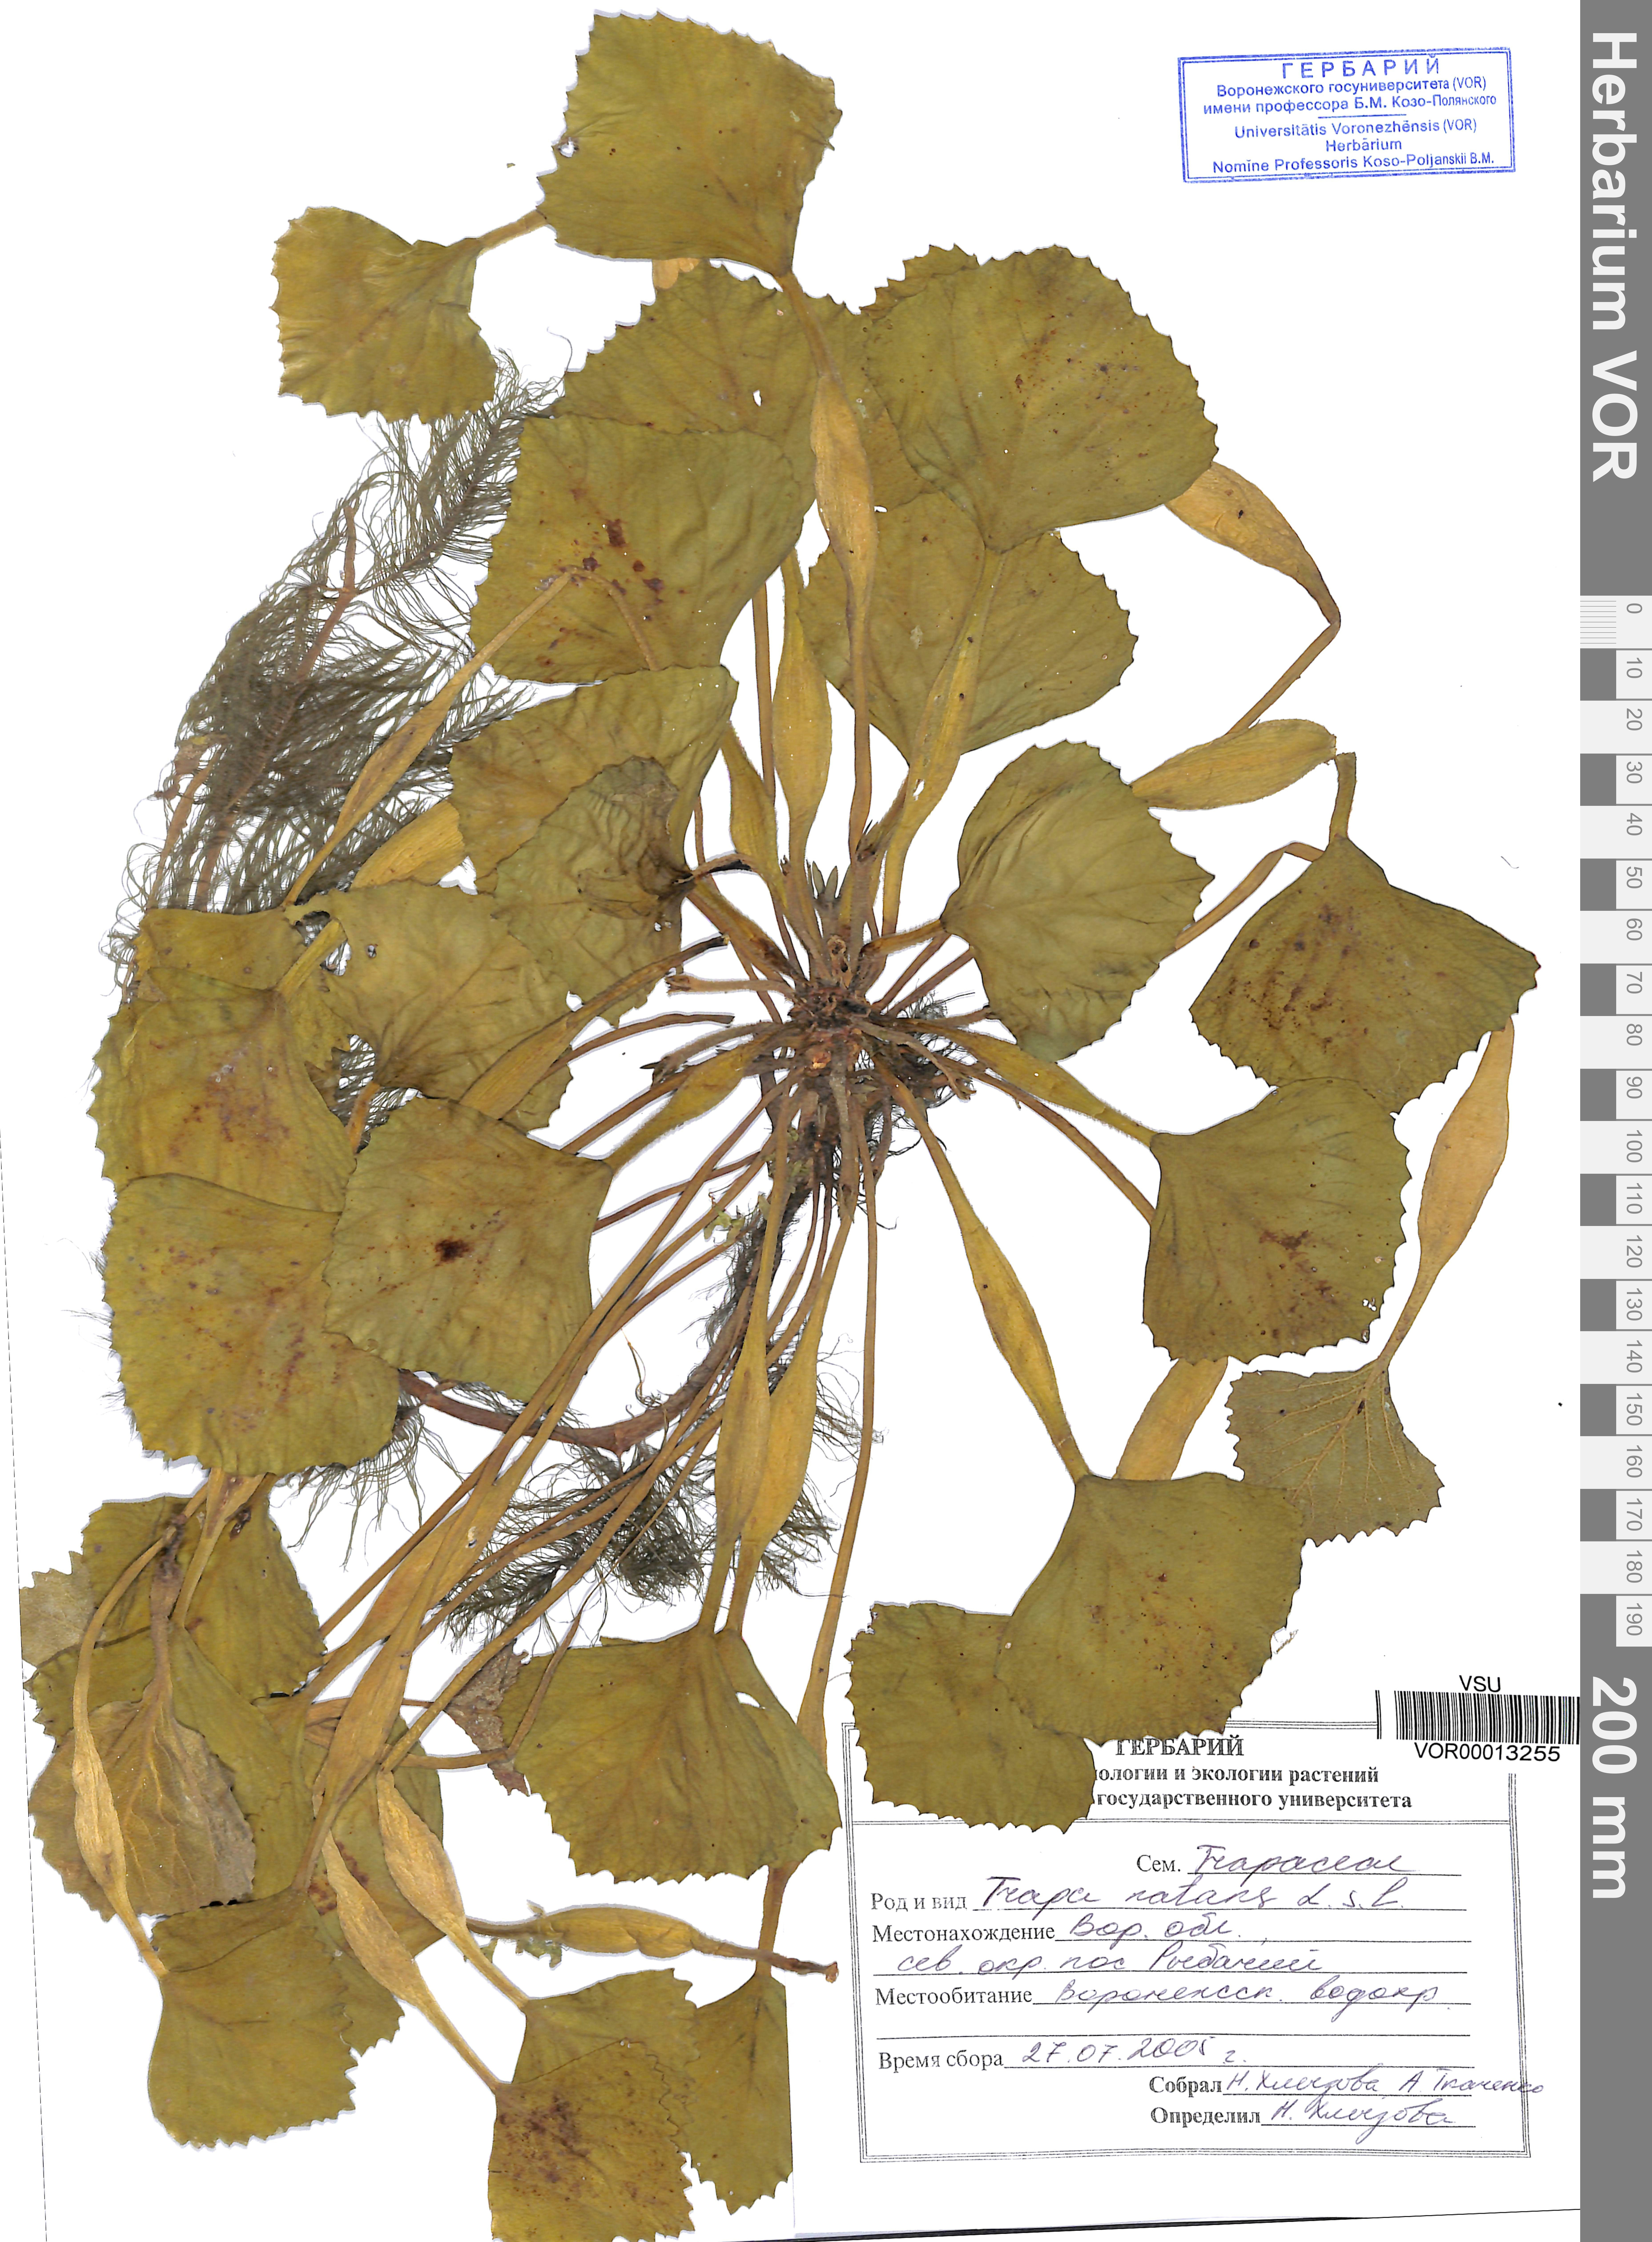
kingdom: Plantae
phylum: Tracheophyta
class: Magnoliopsida
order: Myrtales
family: Lythraceae
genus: Trapa
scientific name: Trapa natans
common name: Water chestnut
